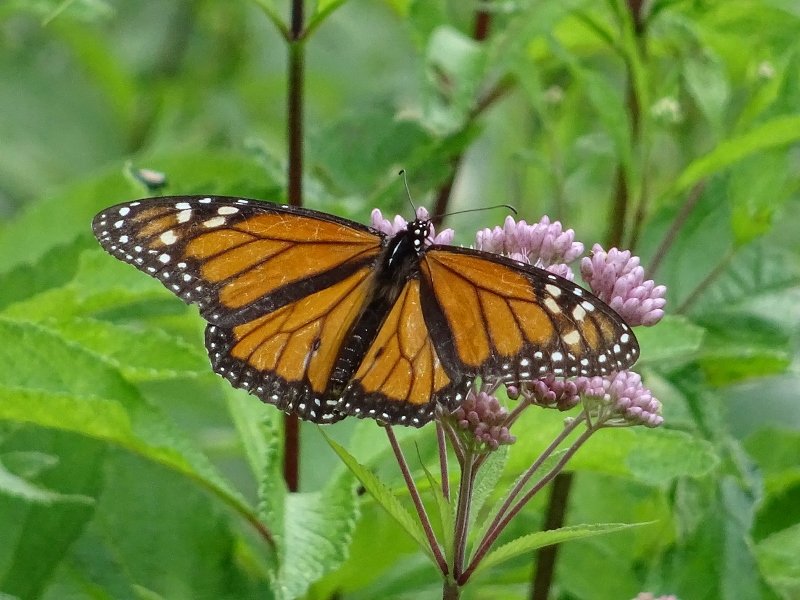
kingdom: Animalia
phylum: Arthropoda
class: Insecta
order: Lepidoptera
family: Nymphalidae
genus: Danaus
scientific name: Danaus plexippus
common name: Monarch
